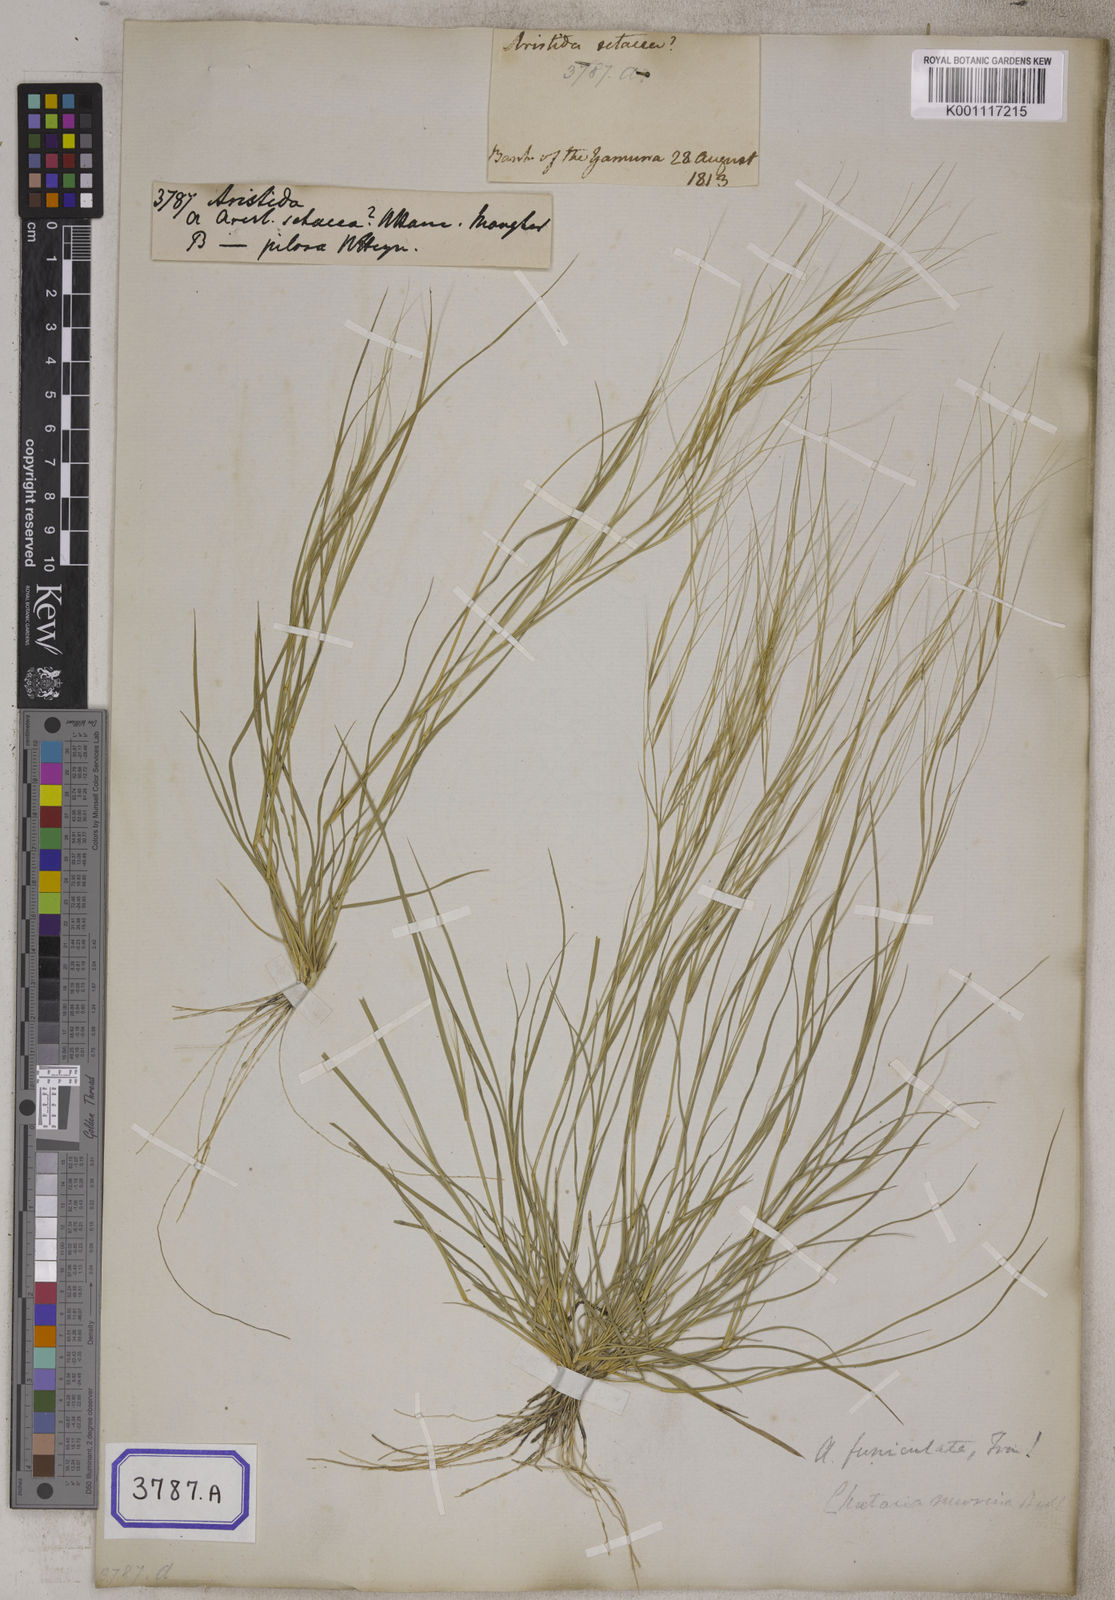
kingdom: Plantae
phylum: Tracheophyta
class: Liliopsida
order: Poales
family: Poaceae
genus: Aristida
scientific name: Aristida
